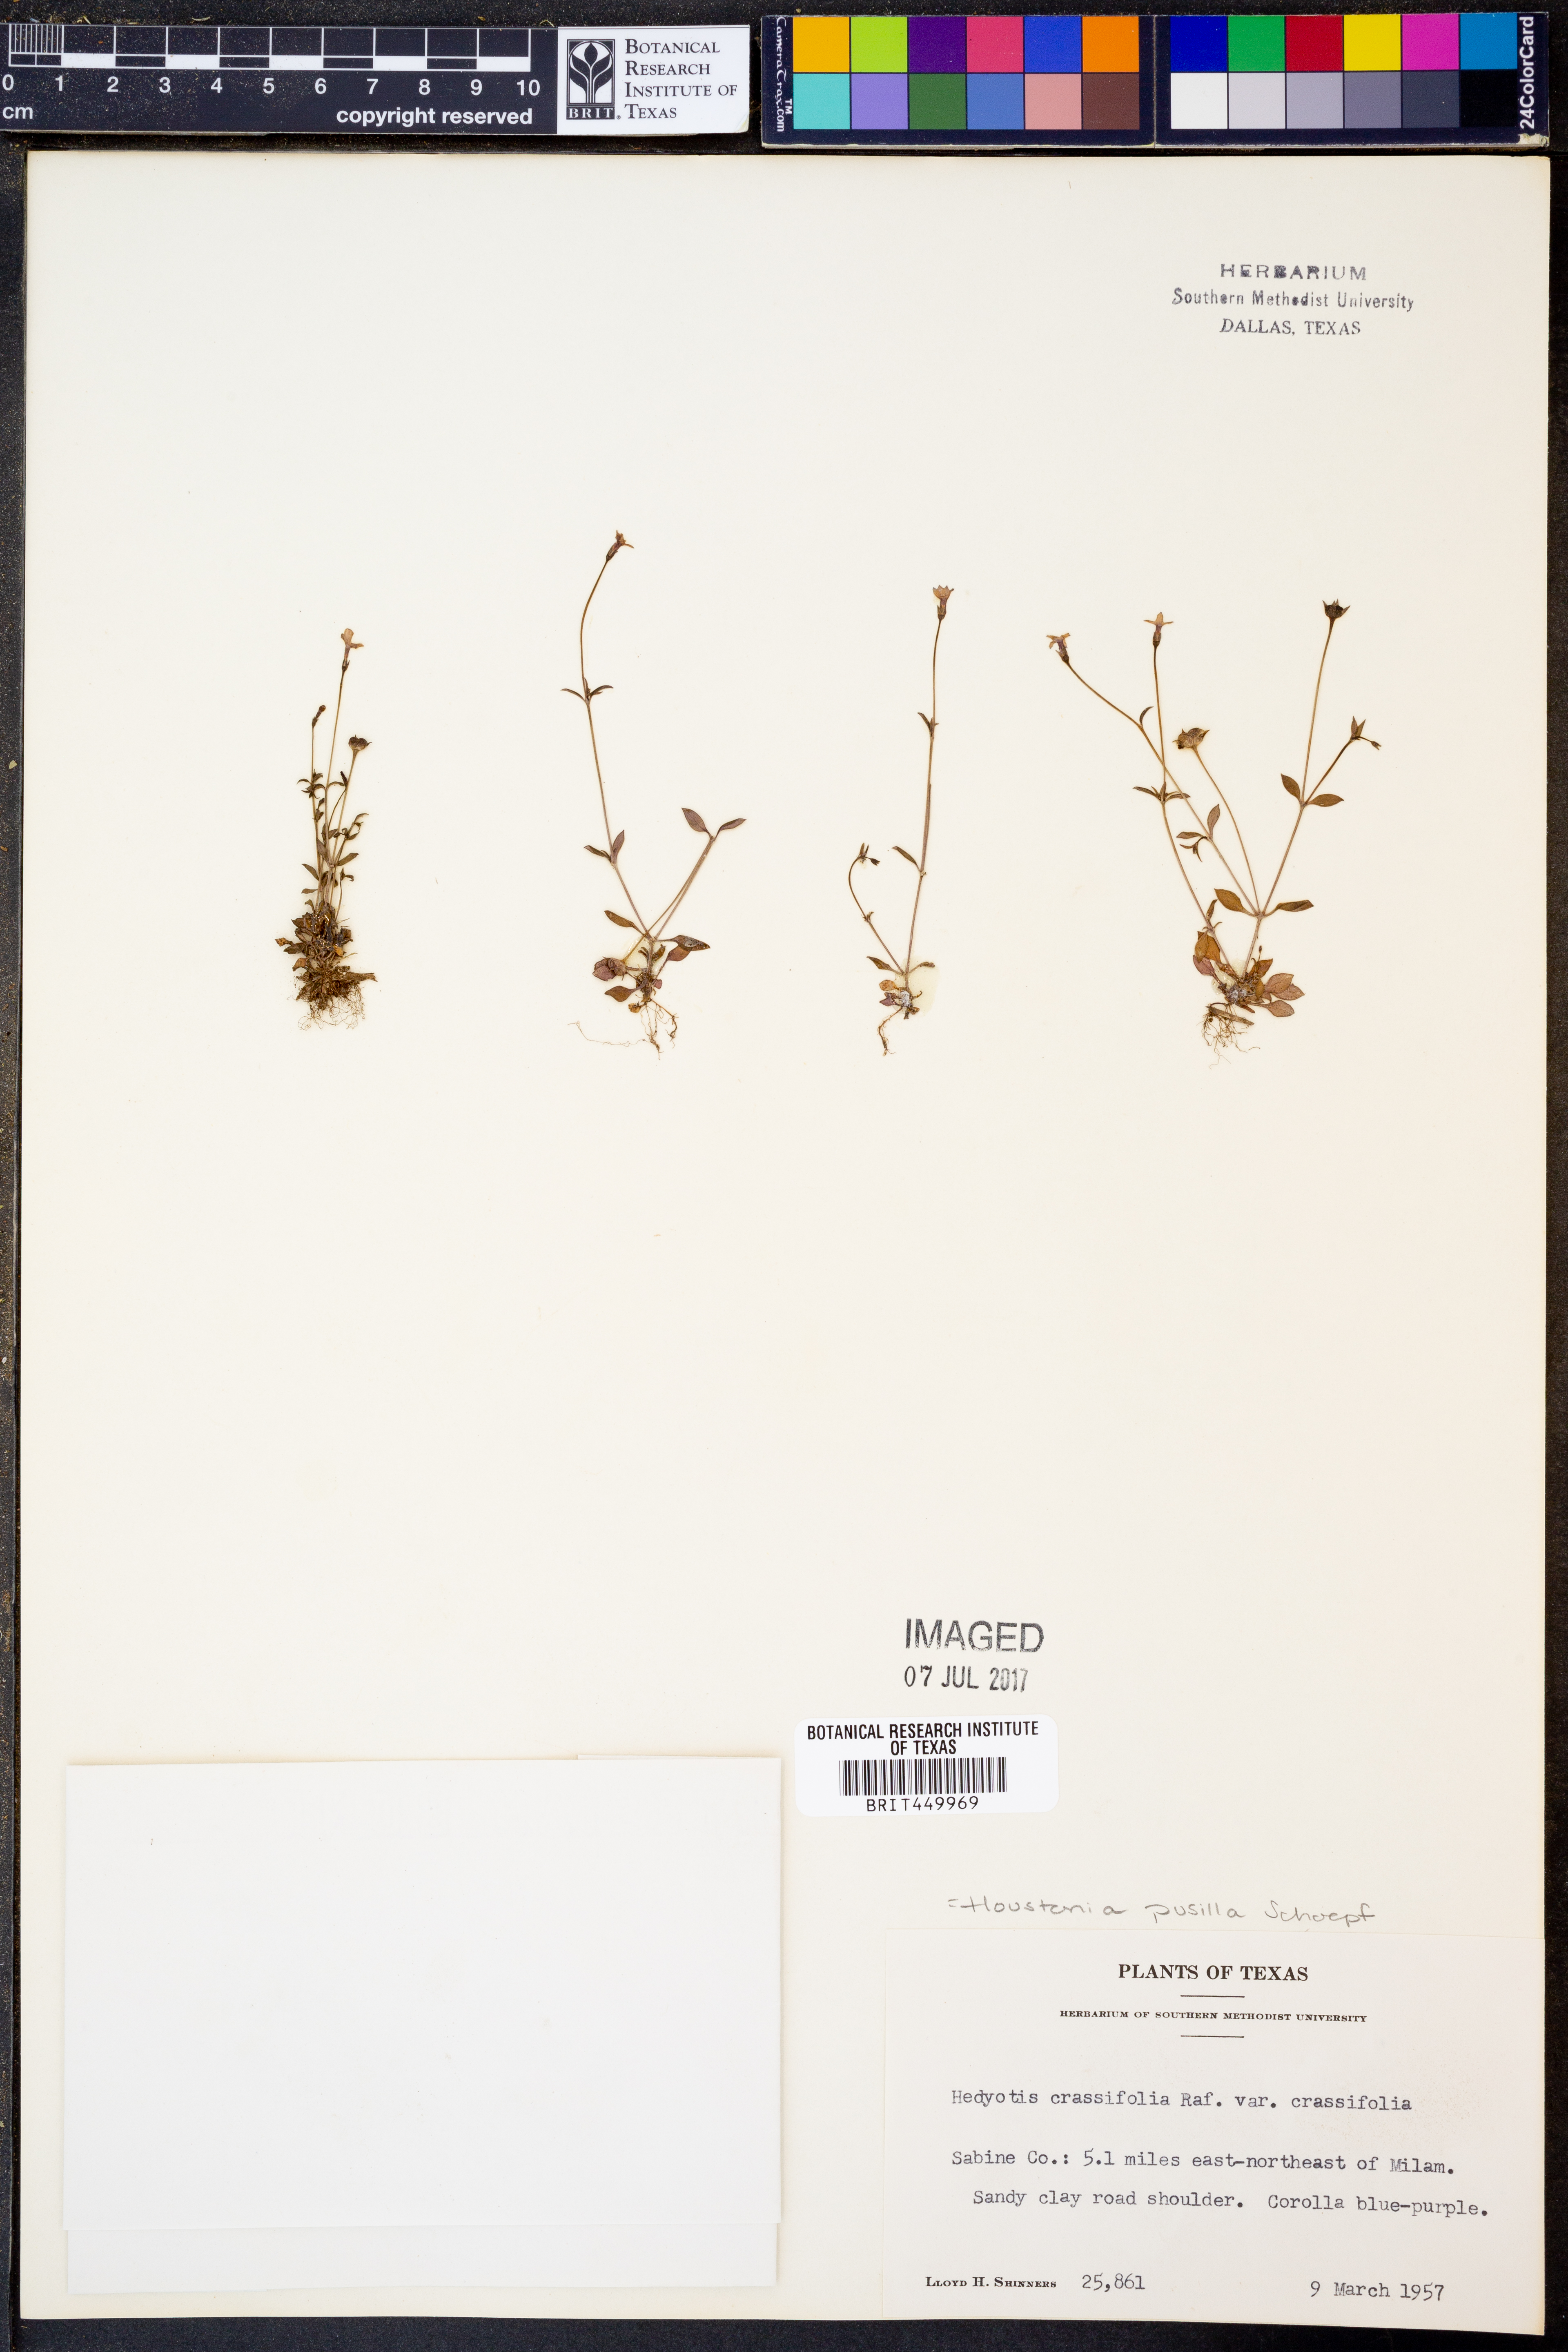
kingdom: Plantae
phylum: Tracheophyta
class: Magnoliopsida
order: Gentianales
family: Rubiaceae
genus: Houstonia
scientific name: Houstonia pusilla
